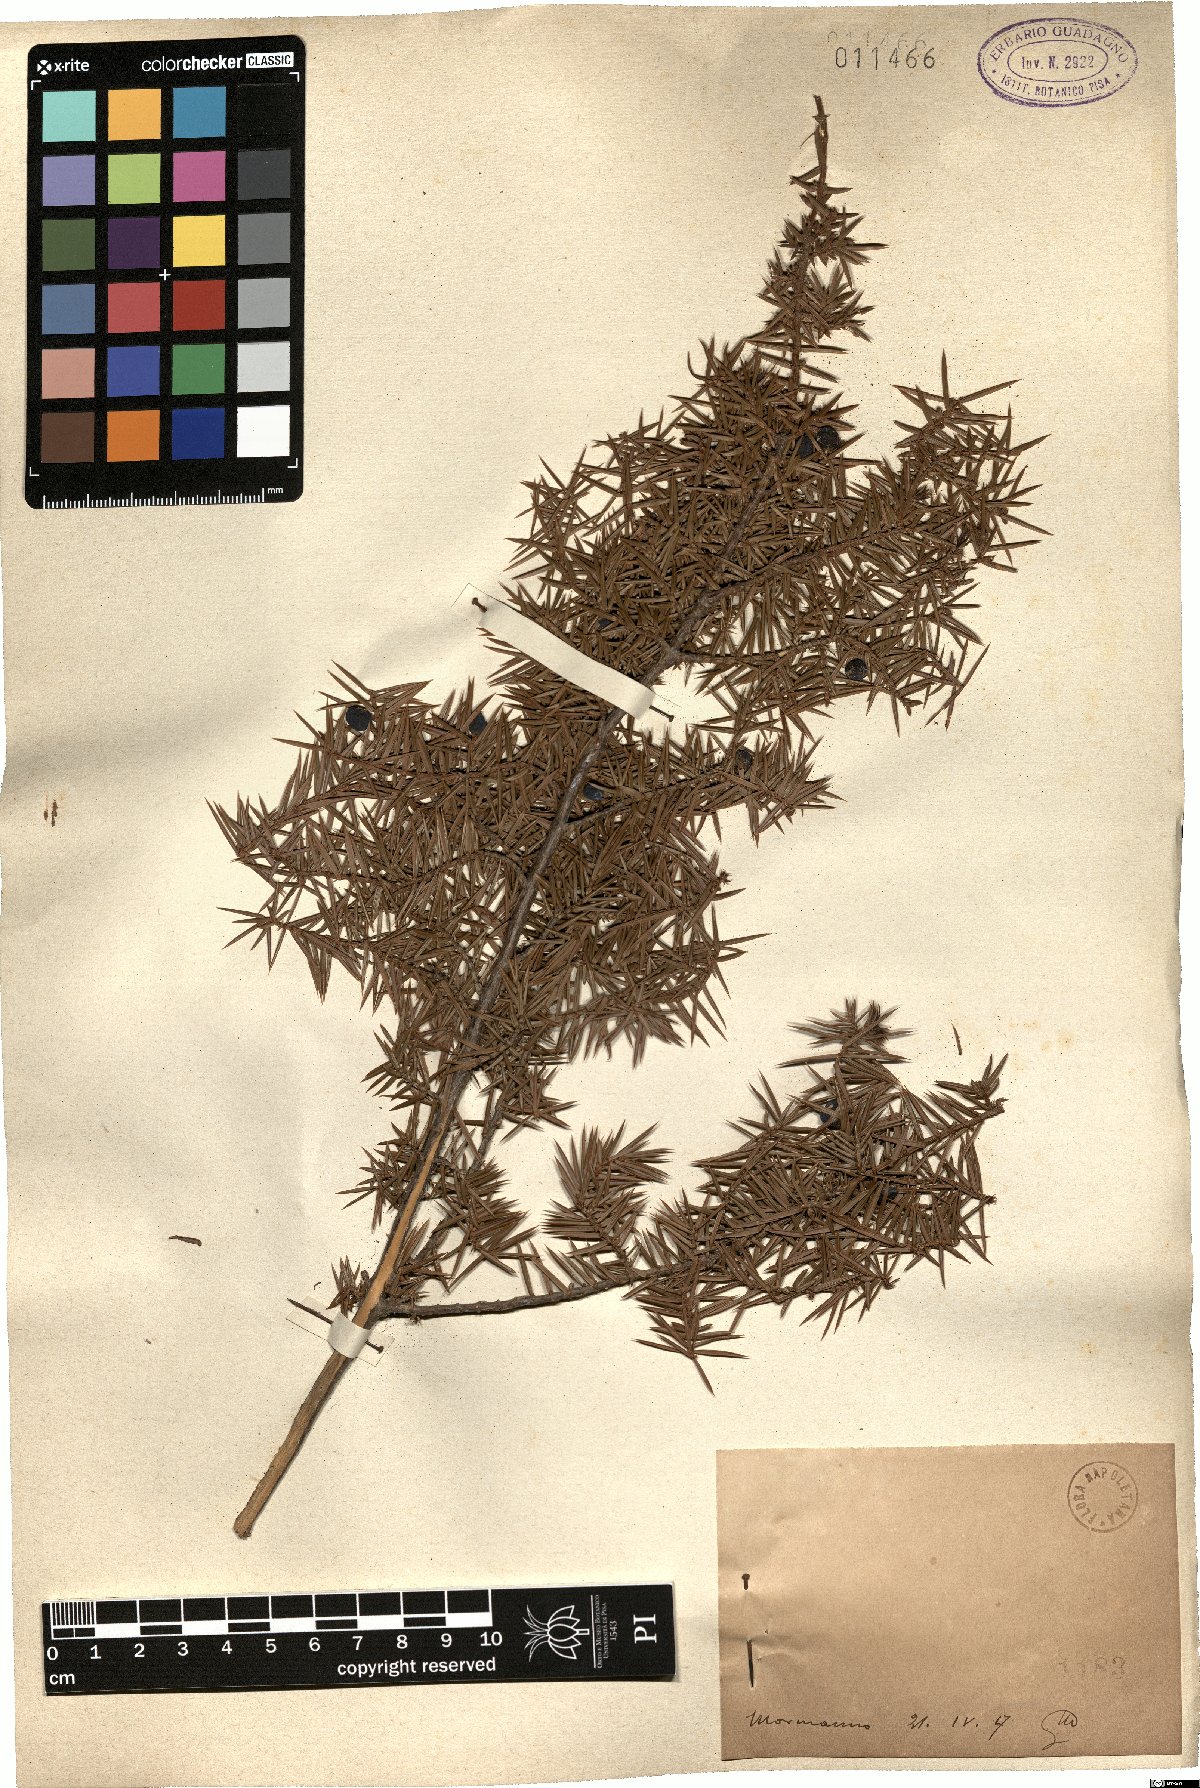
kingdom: Plantae
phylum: Tracheophyta
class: Pinopsida
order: Pinales
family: Cupressaceae
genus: Juniperus
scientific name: Juniperus communis
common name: Common juniper
